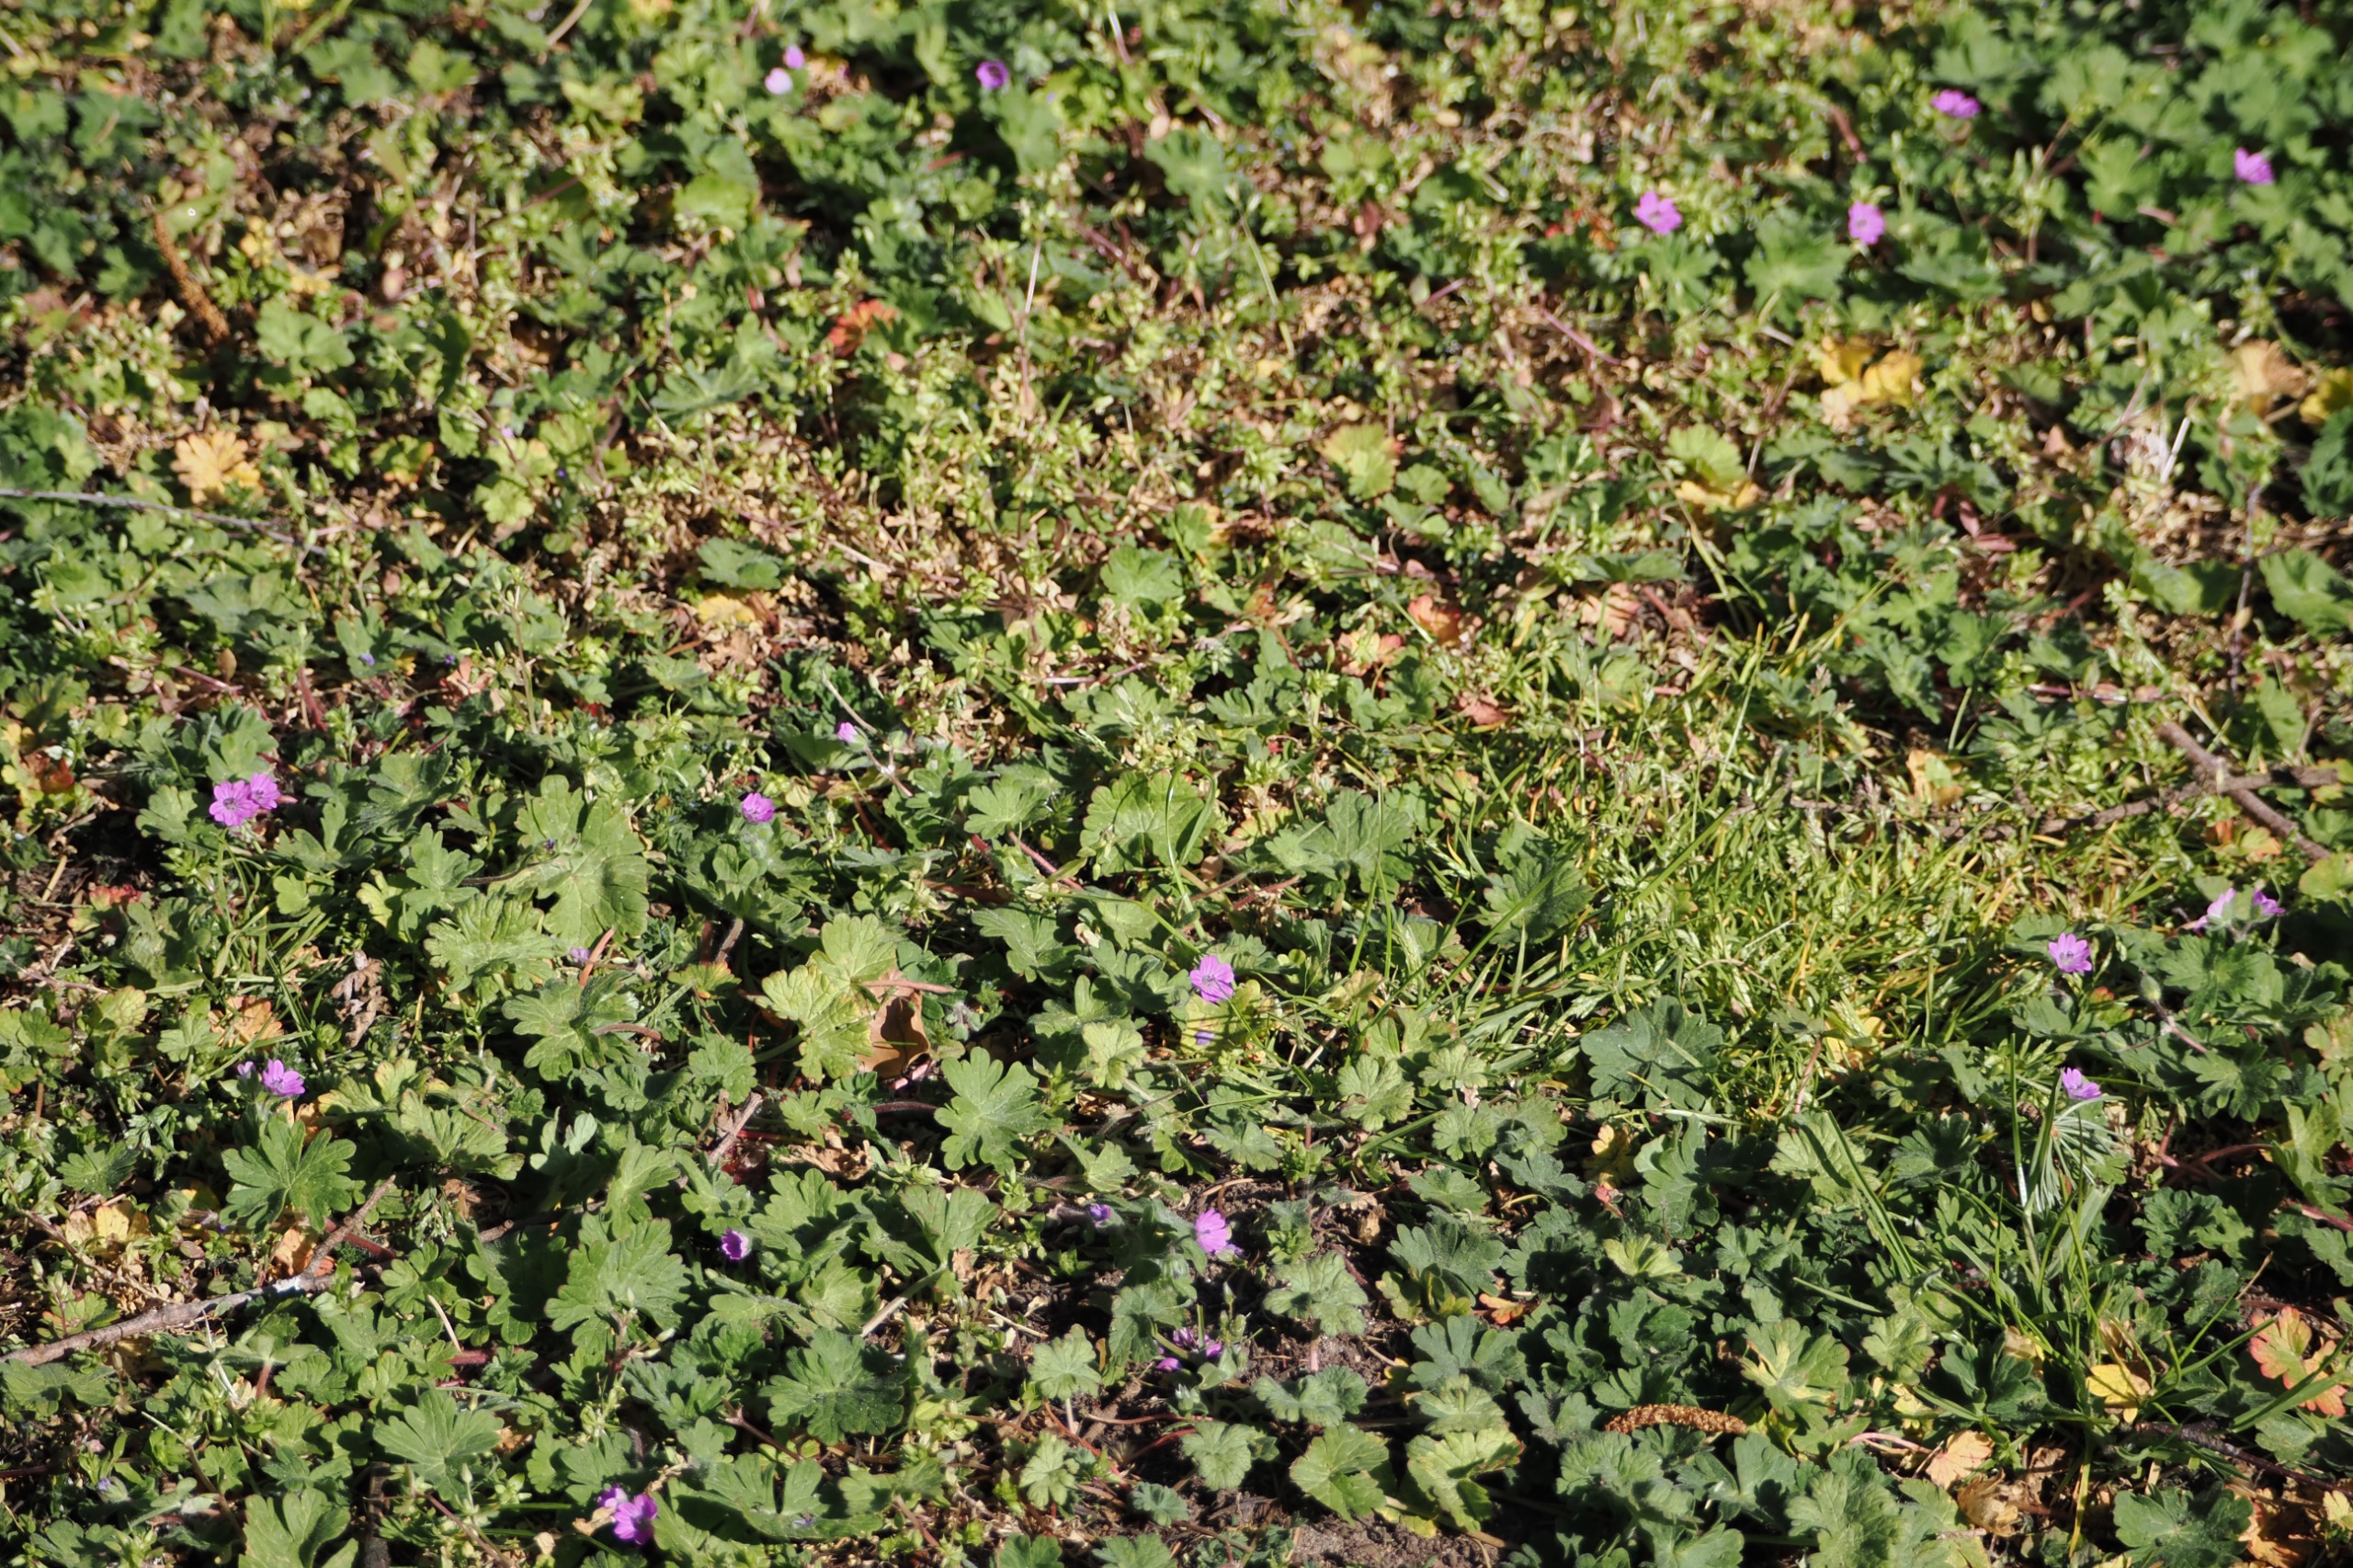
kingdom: Plantae
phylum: Tracheophyta
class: Magnoliopsida
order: Geraniales
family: Geraniaceae
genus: Geranium
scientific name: Geranium molle
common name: Blød storkenæb
